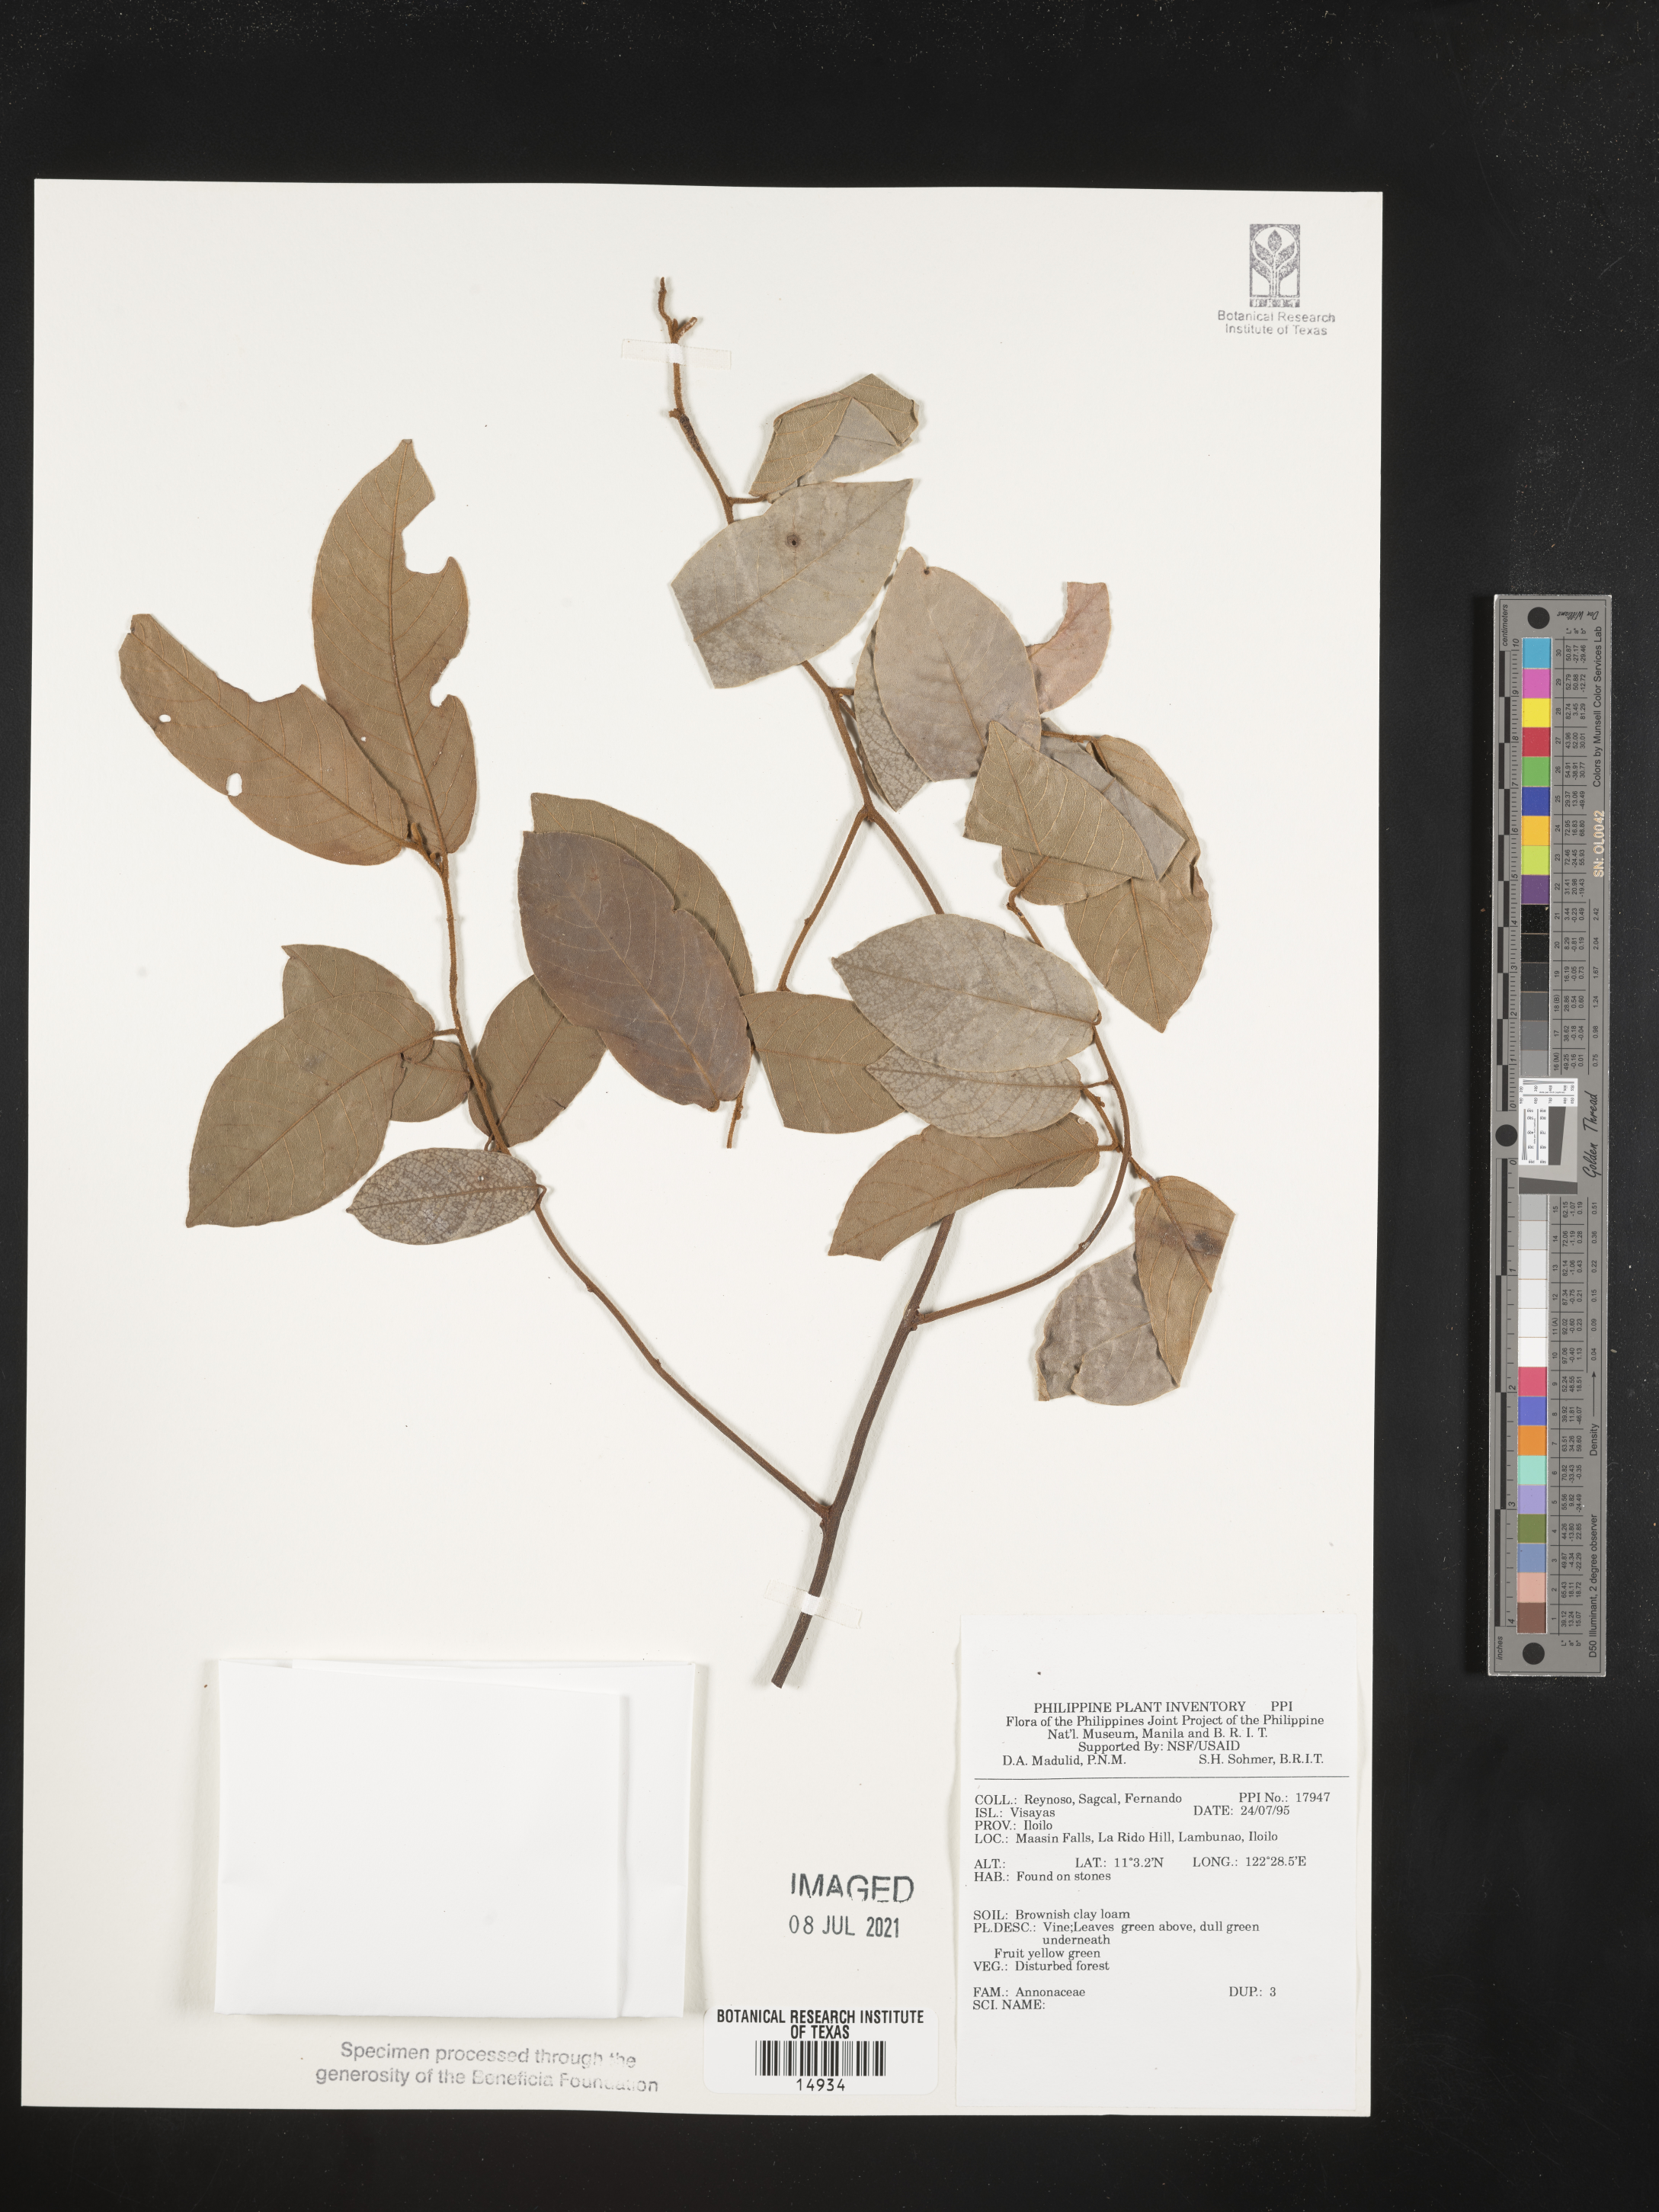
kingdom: Plantae
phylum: Tracheophyta
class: Magnoliopsida
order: Magnoliales
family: Annonaceae
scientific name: Annonaceae
